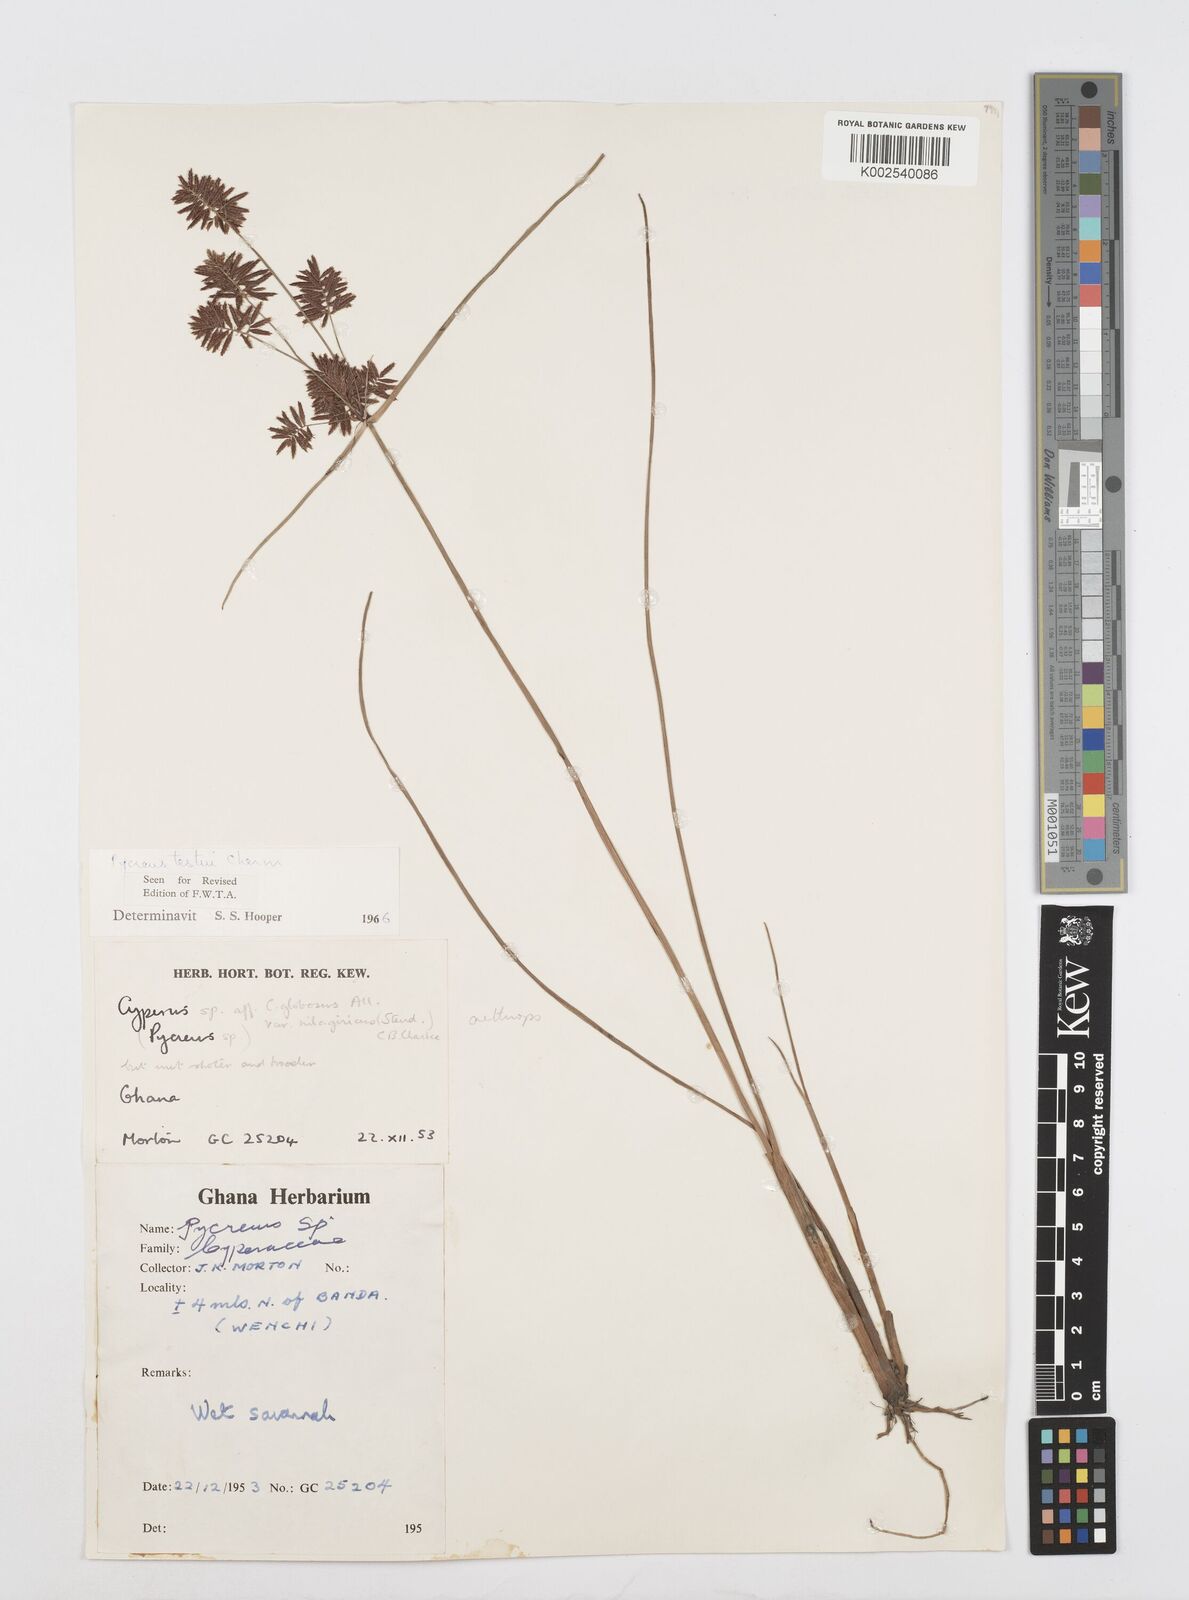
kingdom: Plantae
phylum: Tracheophyta
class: Liliopsida
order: Poales
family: Cyperaceae
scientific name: Cyperaceae
